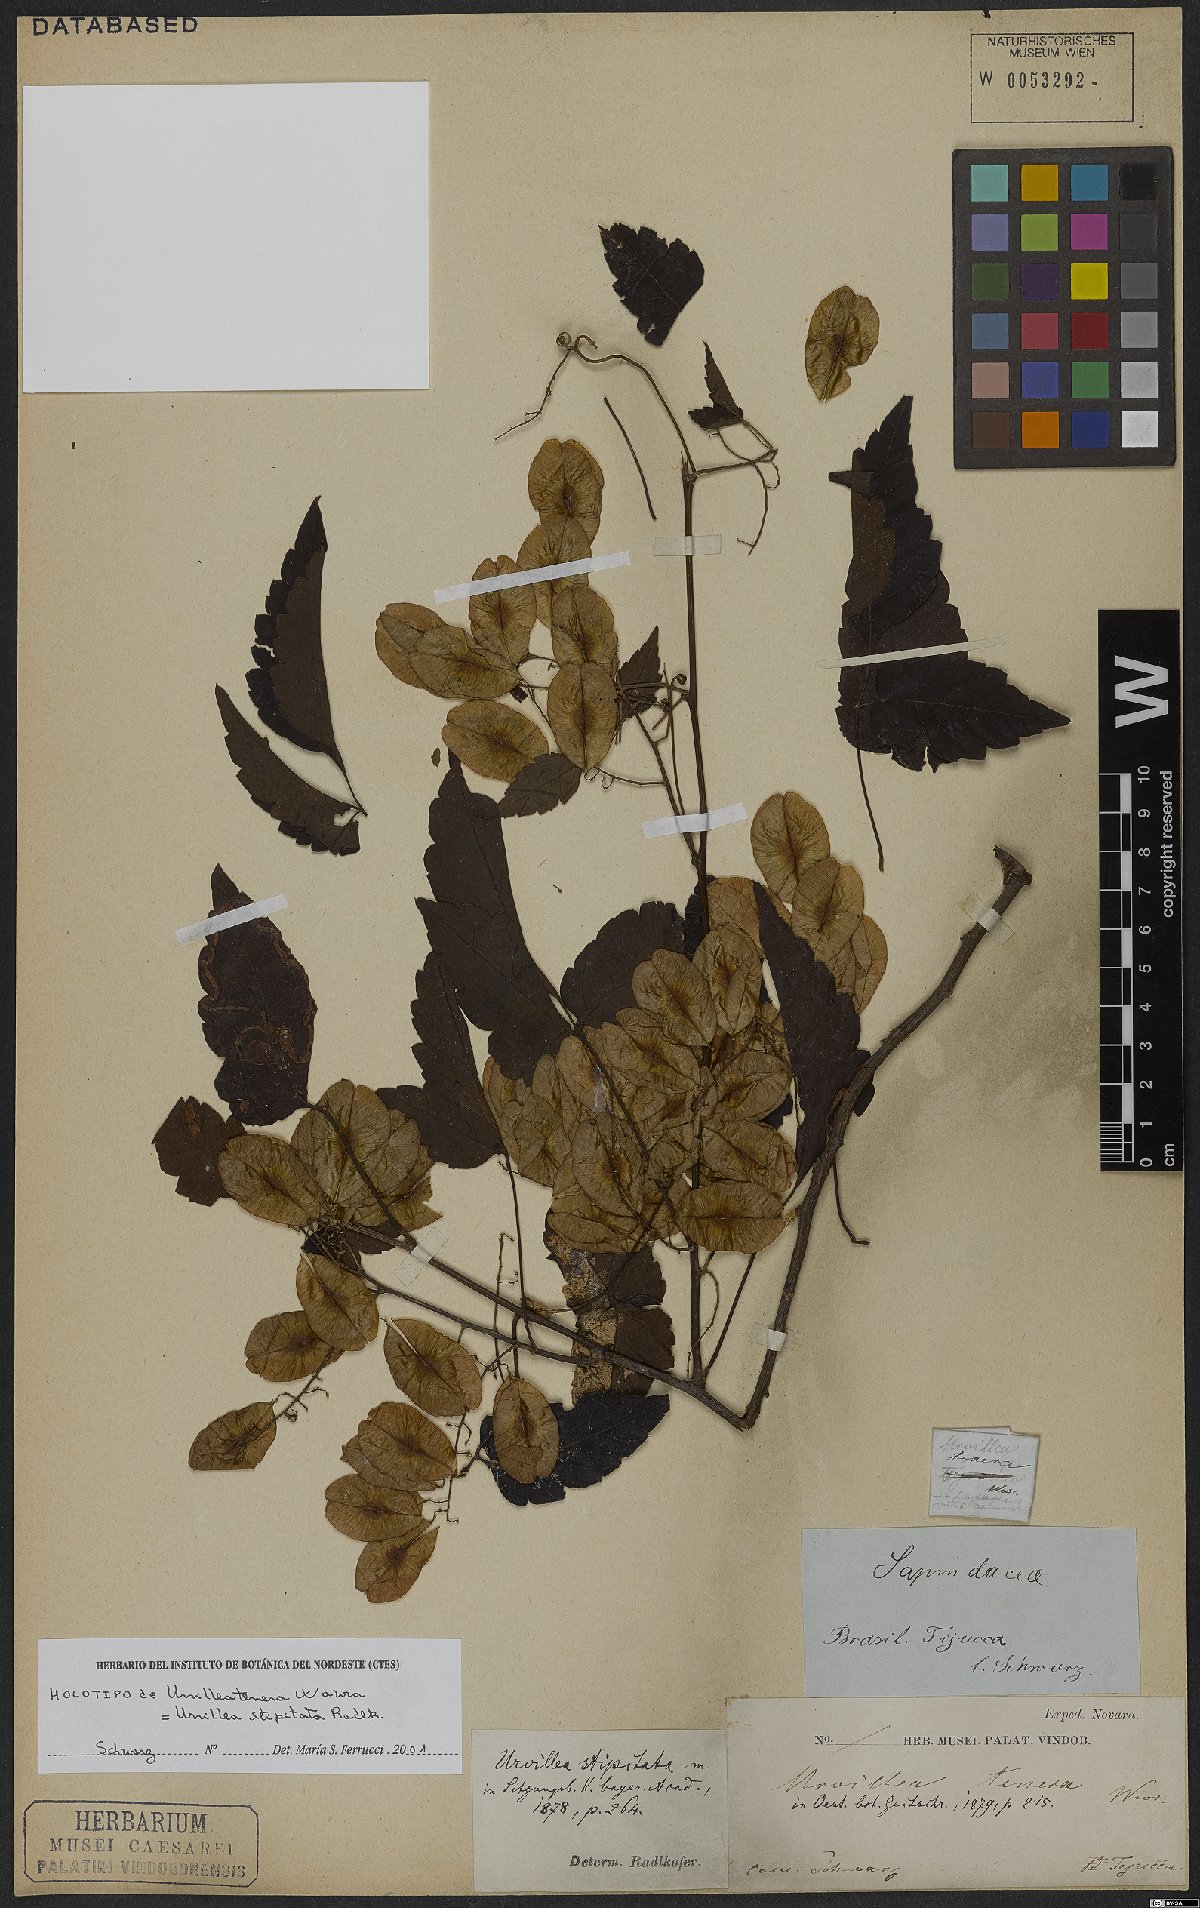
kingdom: Plantae
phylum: Tracheophyta
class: Magnoliopsida
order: Sapindales
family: Sapindaceae
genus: Urvillea
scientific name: Urvillea stipitata
